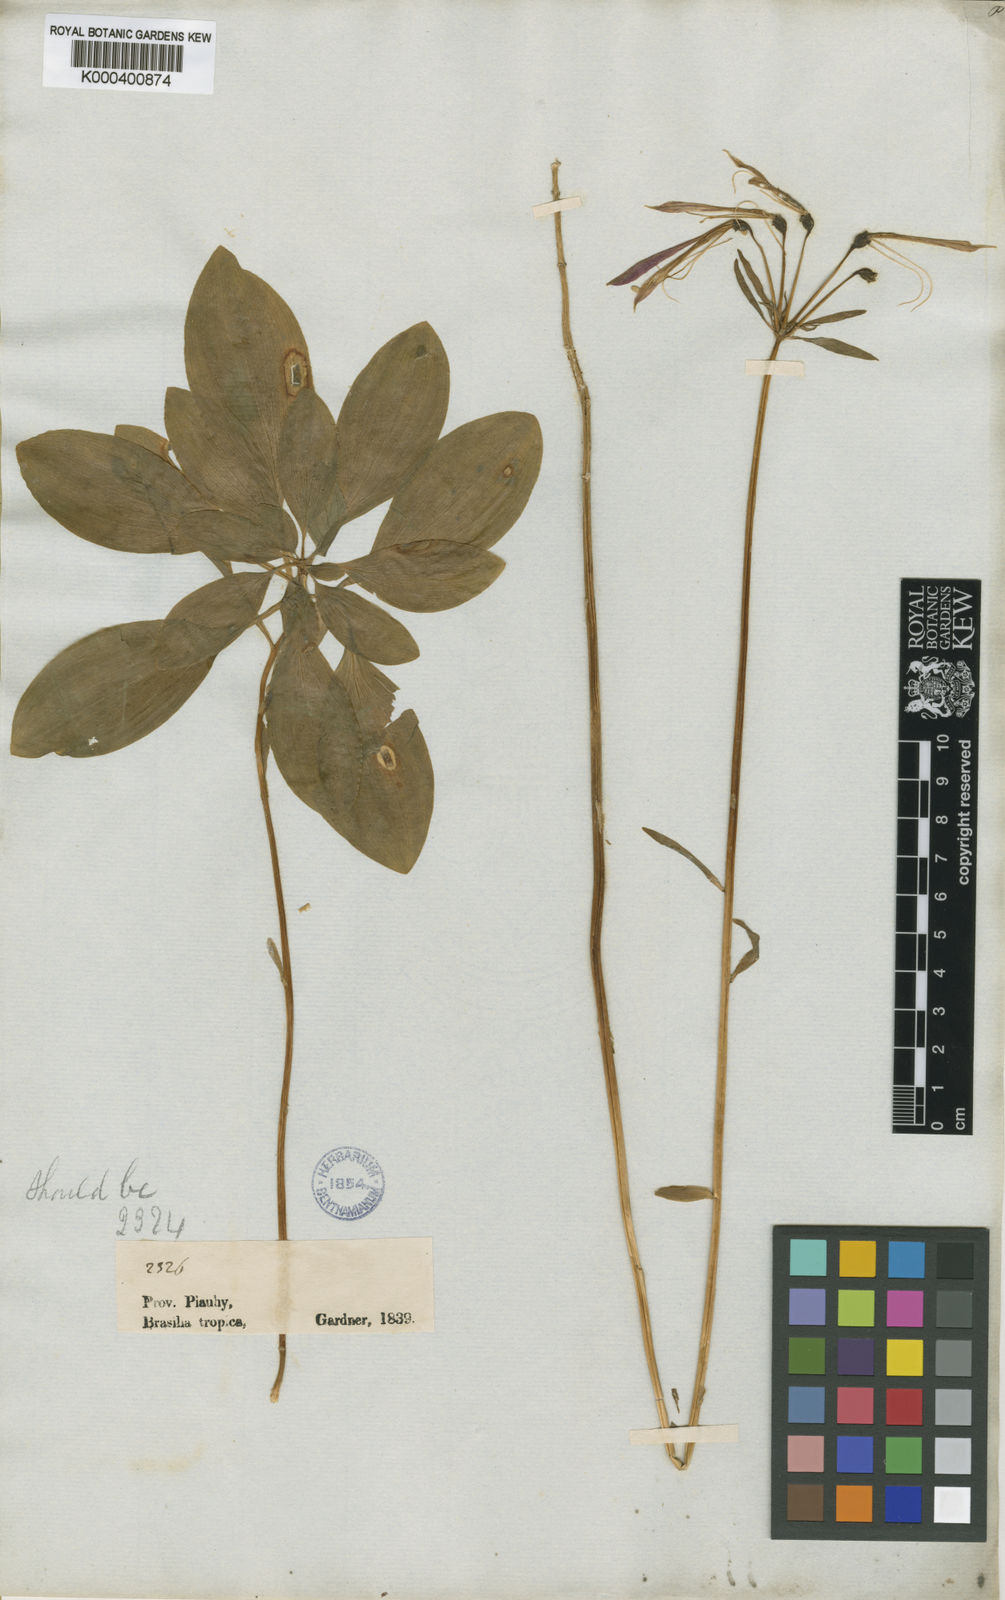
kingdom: Plantae
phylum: Tracheophyta
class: Liliopsida
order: Liliales
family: Alstroemeriaceae
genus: Alstroemeria
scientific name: Alstroemeria
